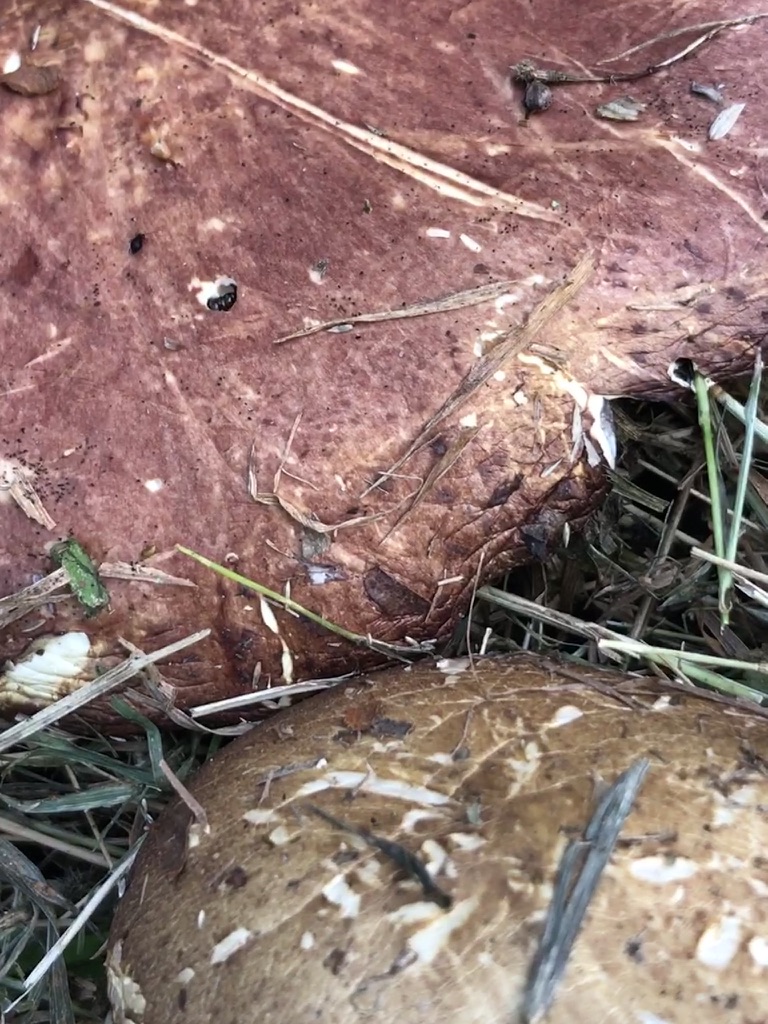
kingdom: Fungi
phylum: Basidiomycota
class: Agaricomycetes
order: Agaricales
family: Strophariaceae
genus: Stropharia
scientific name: Stropharia rugosoannulata
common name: rødbrun bredblad
